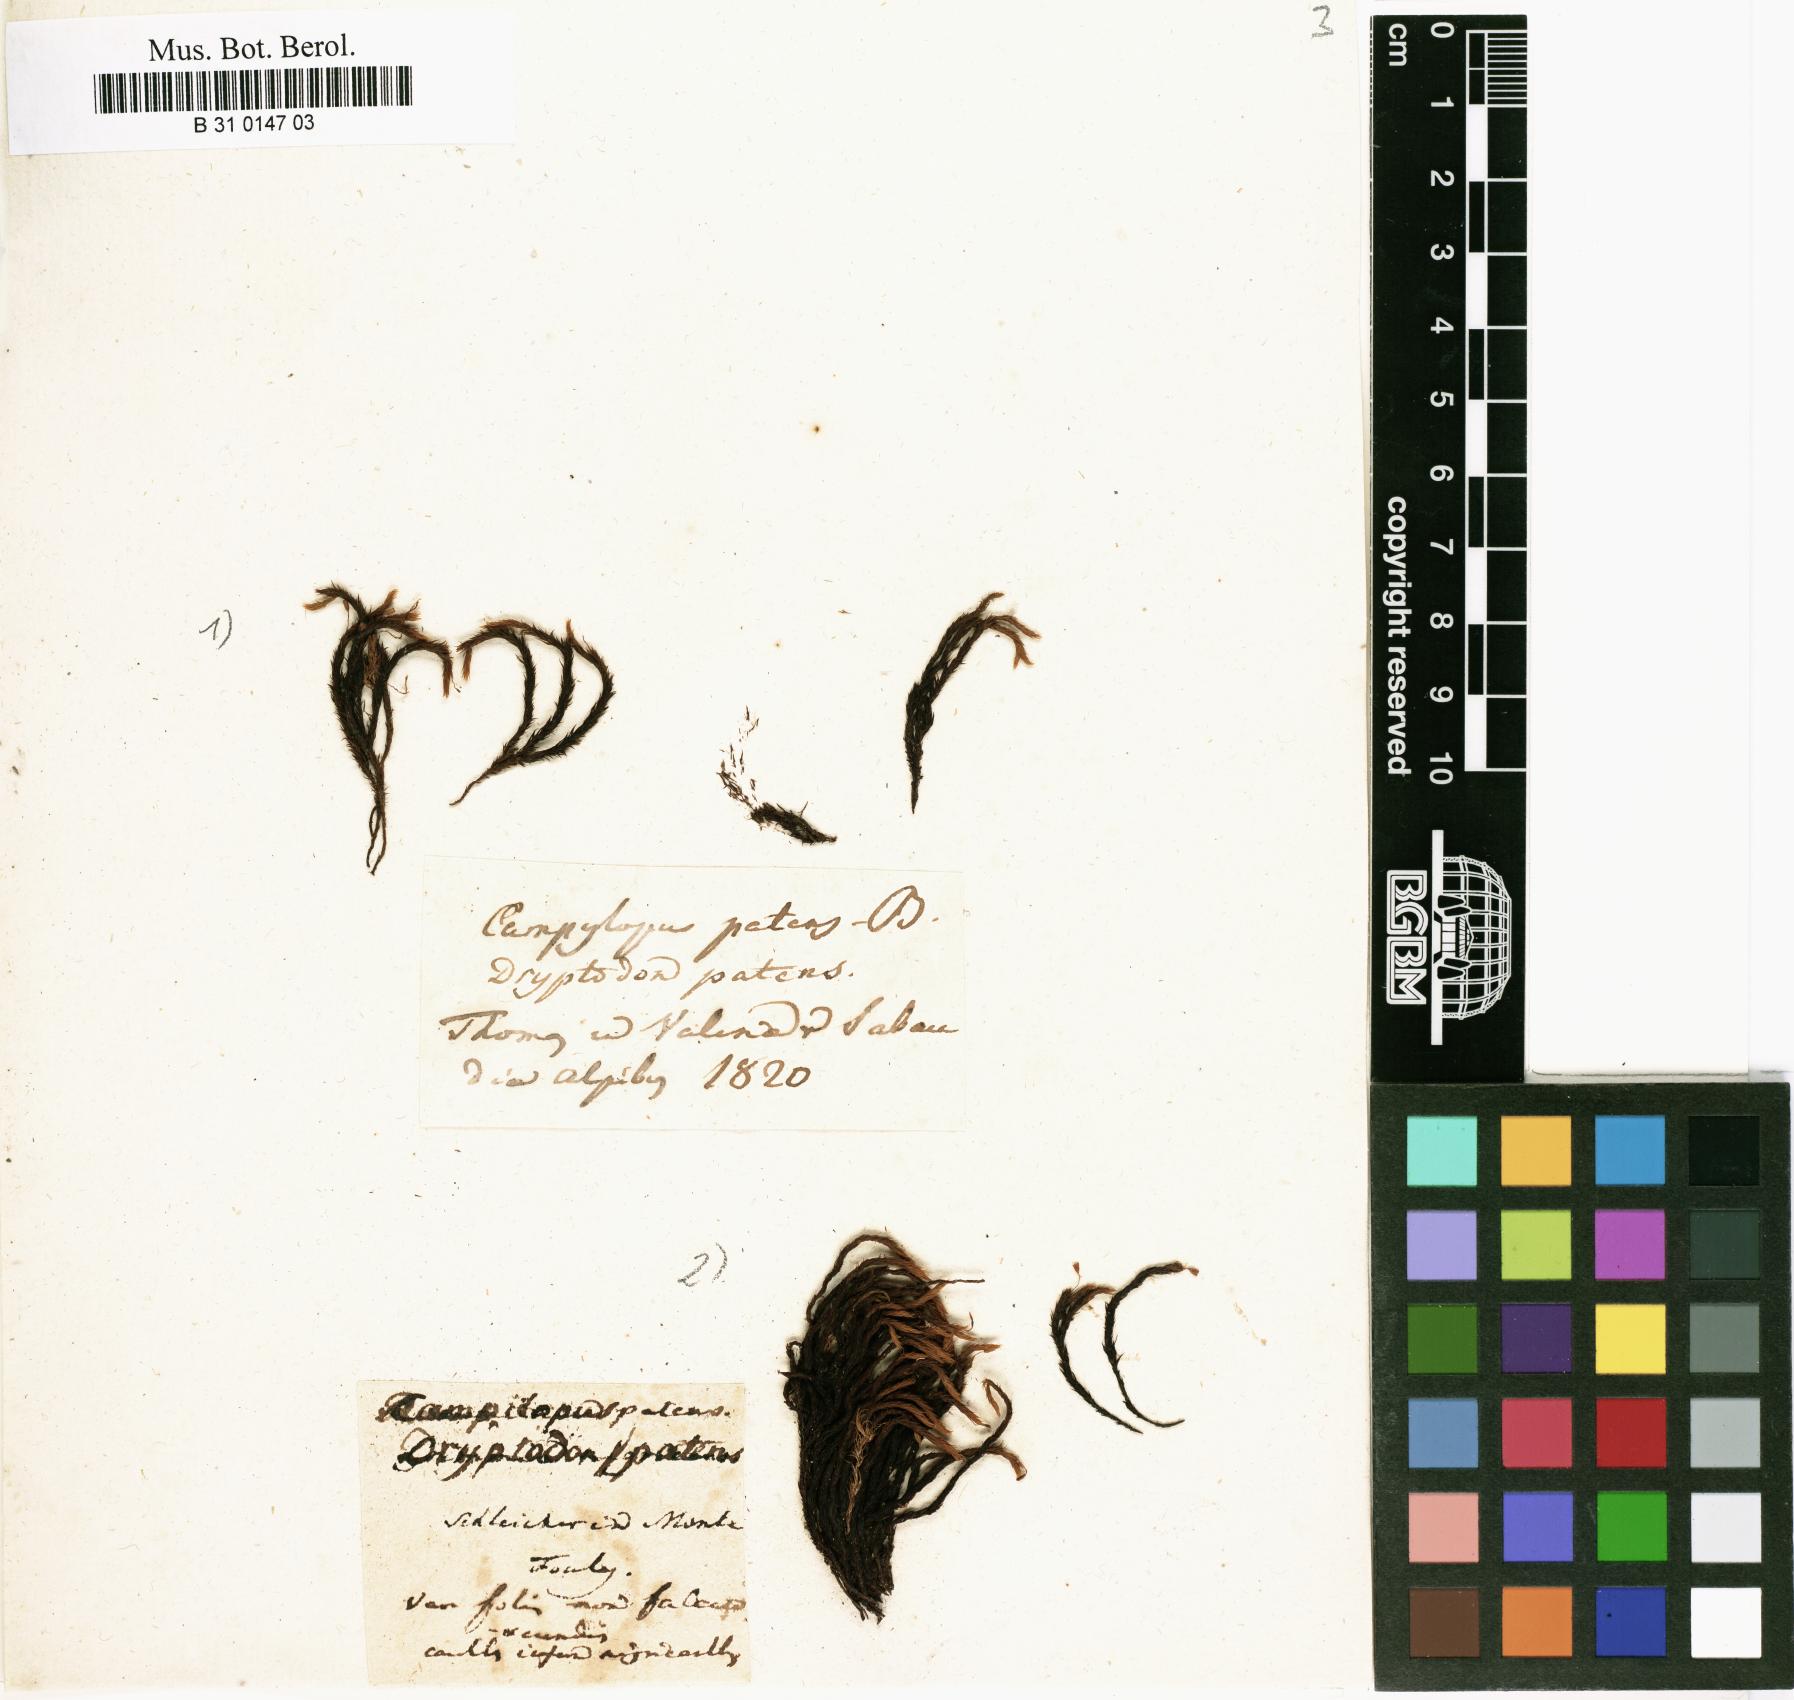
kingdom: Plantae
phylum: Bryophyta
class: Bryopsida
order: Grimmiales
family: Grimmiaceae
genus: Grimmia
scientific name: Grimmia ramondii
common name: Spreading-leaved grimmia
